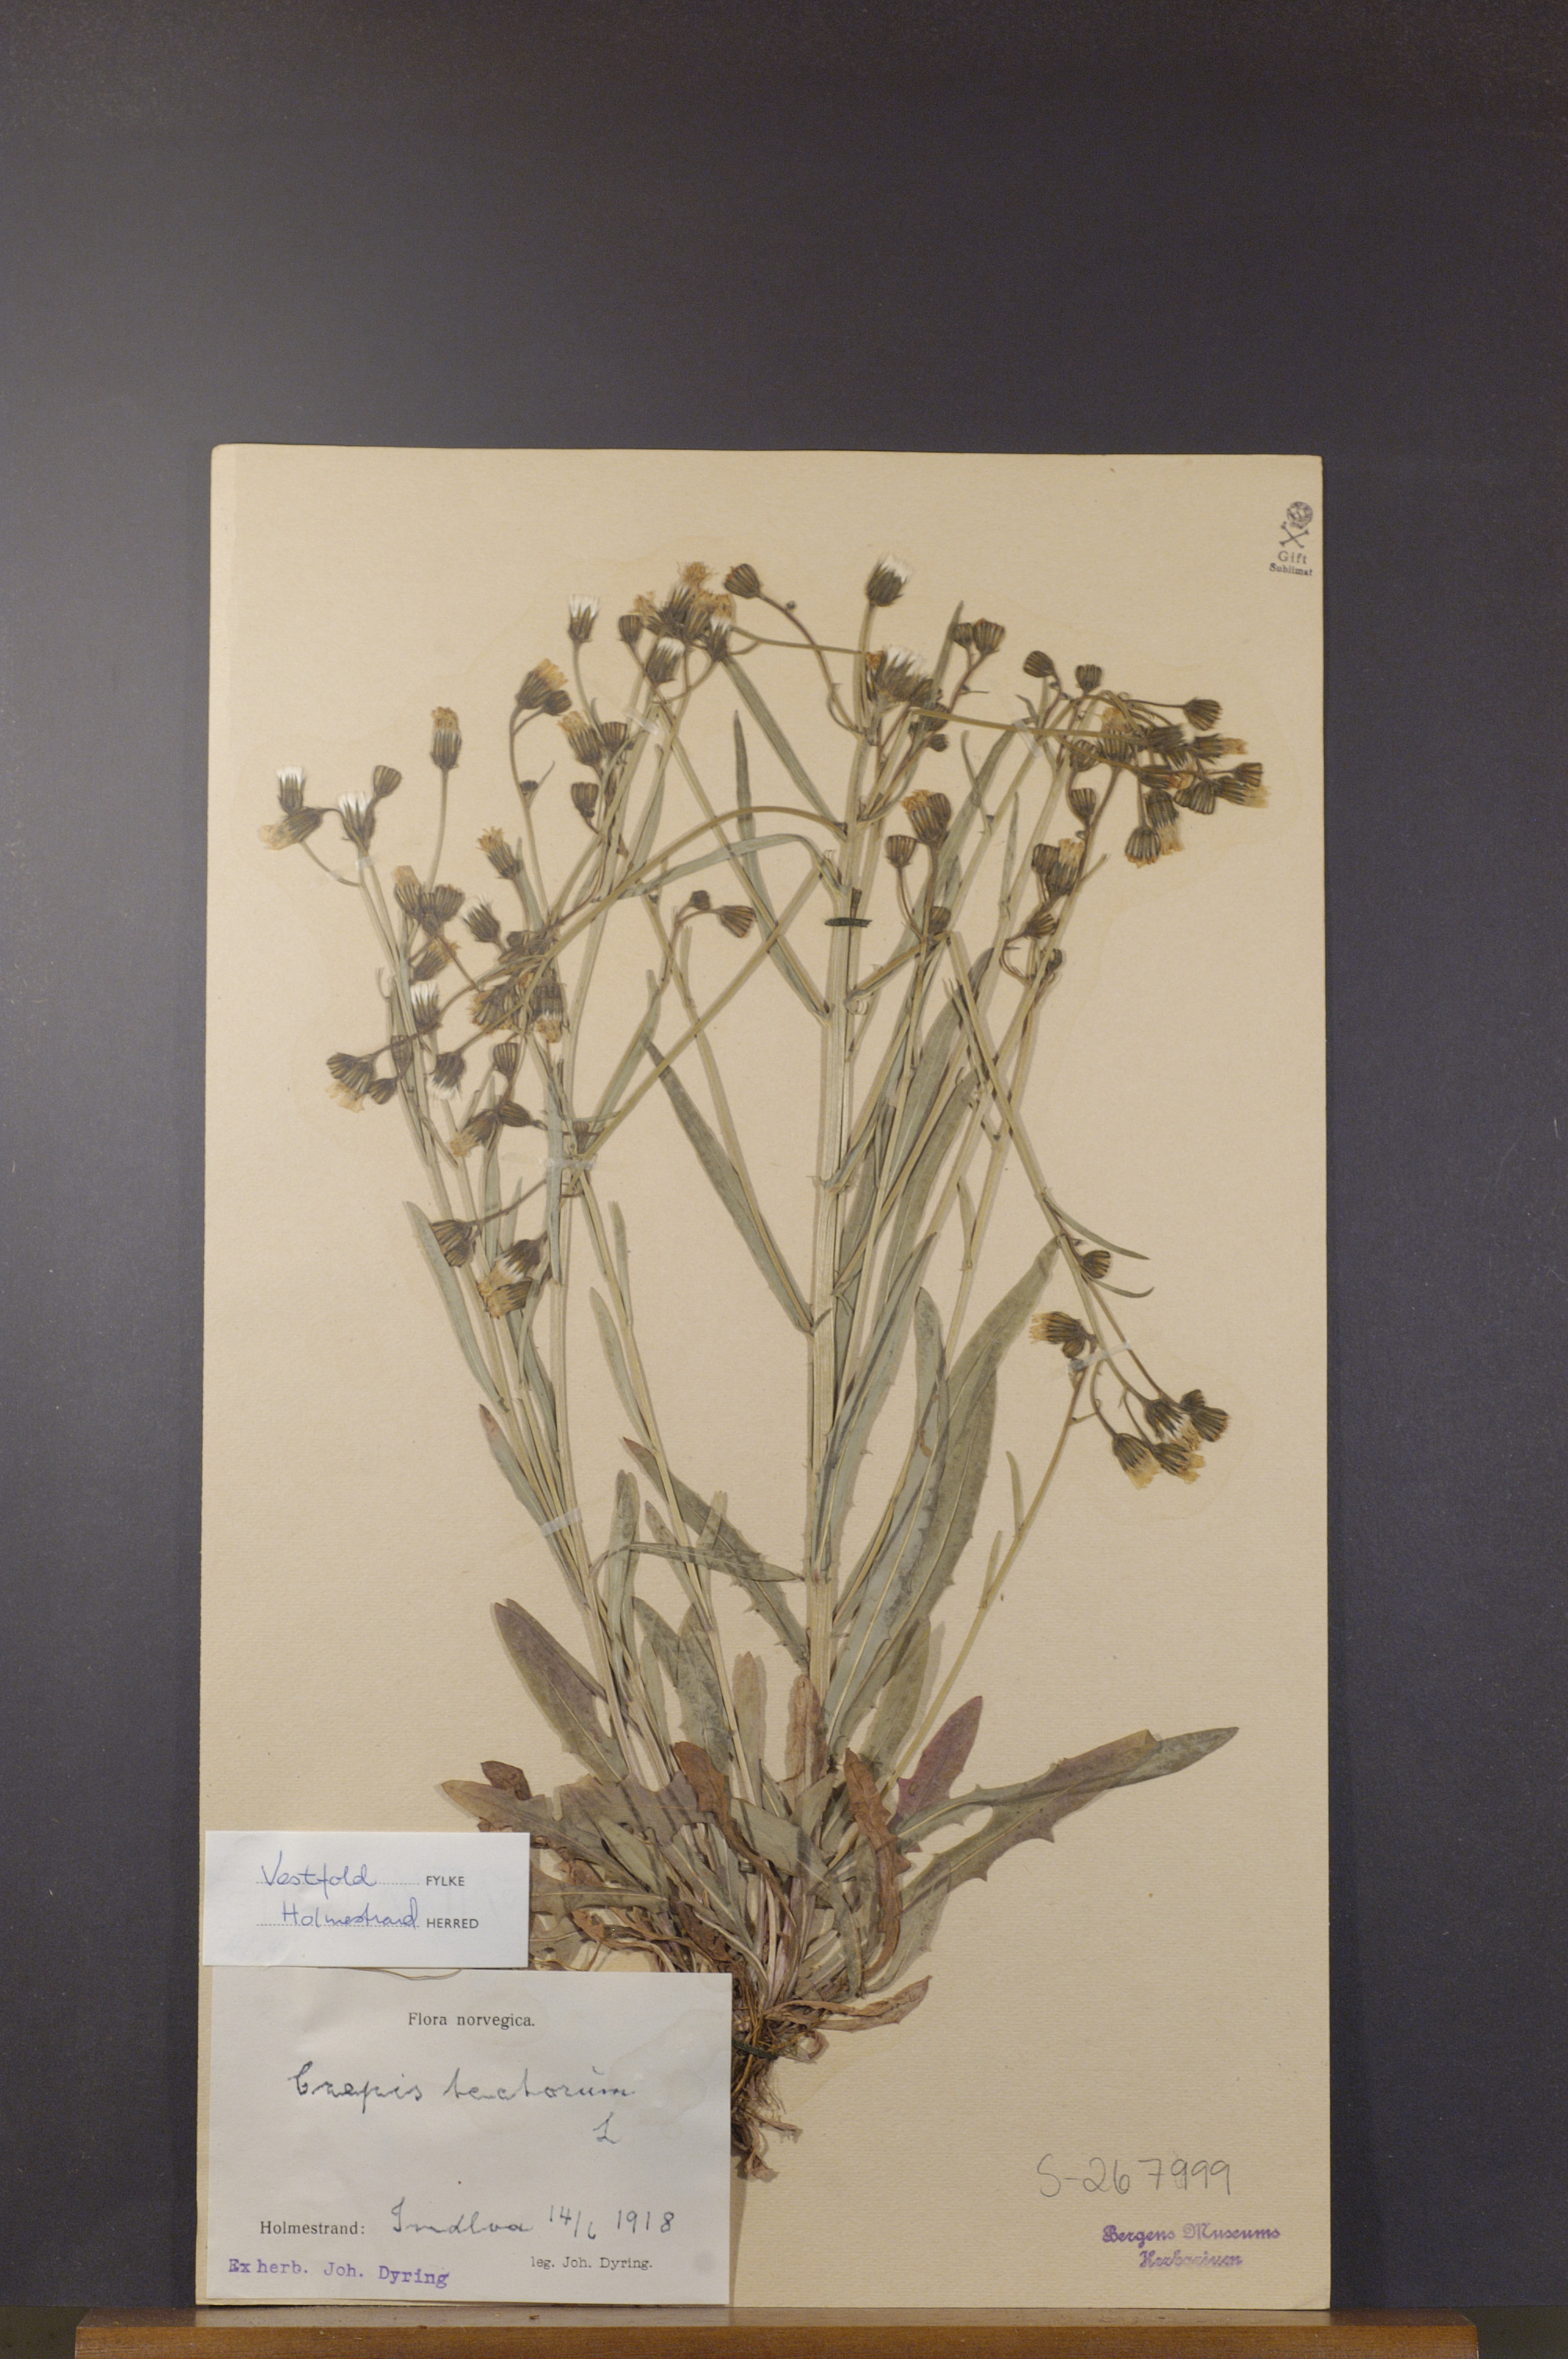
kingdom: Plantae
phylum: Tracheophyta
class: Magnoliopsida
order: Asterales
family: Asteraceae
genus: Crepis
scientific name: Crepis tectorum
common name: Narrow-leaved hawk's-beard
